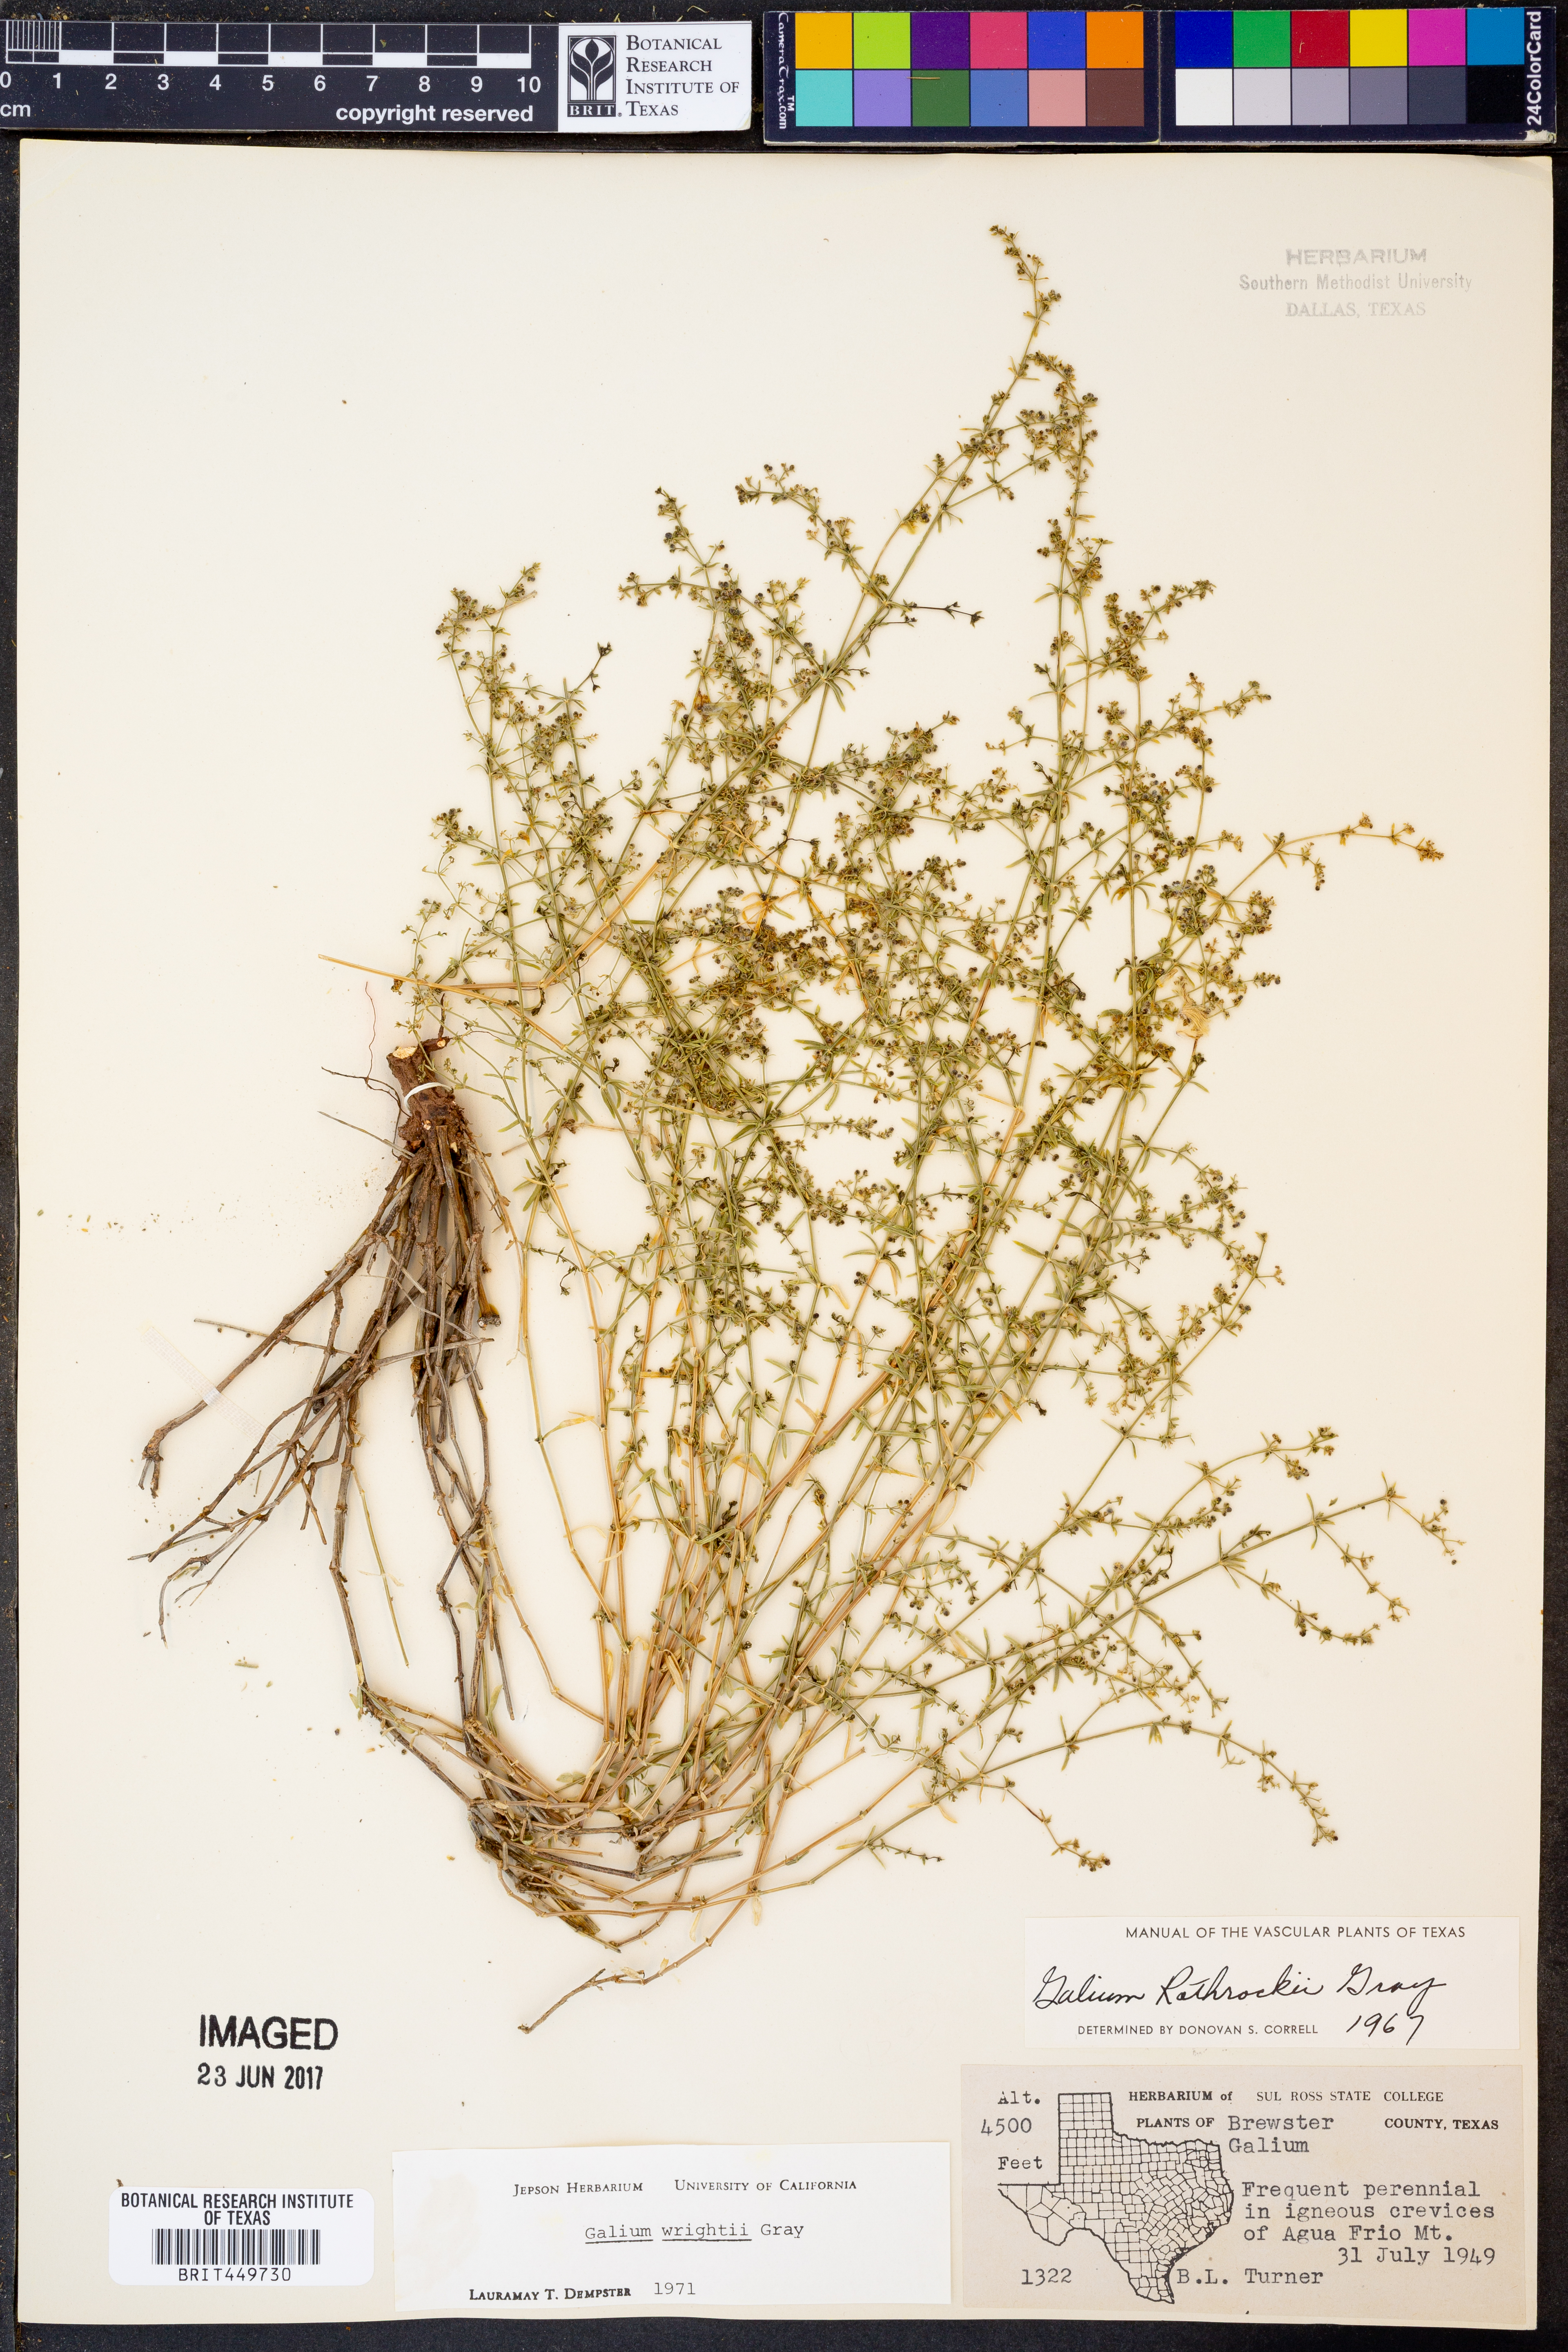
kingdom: Plantae
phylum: Tracheophyta
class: Magnoliopsida
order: Gentianales
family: Rubiaceae
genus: Galium
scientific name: Galium wrightii
